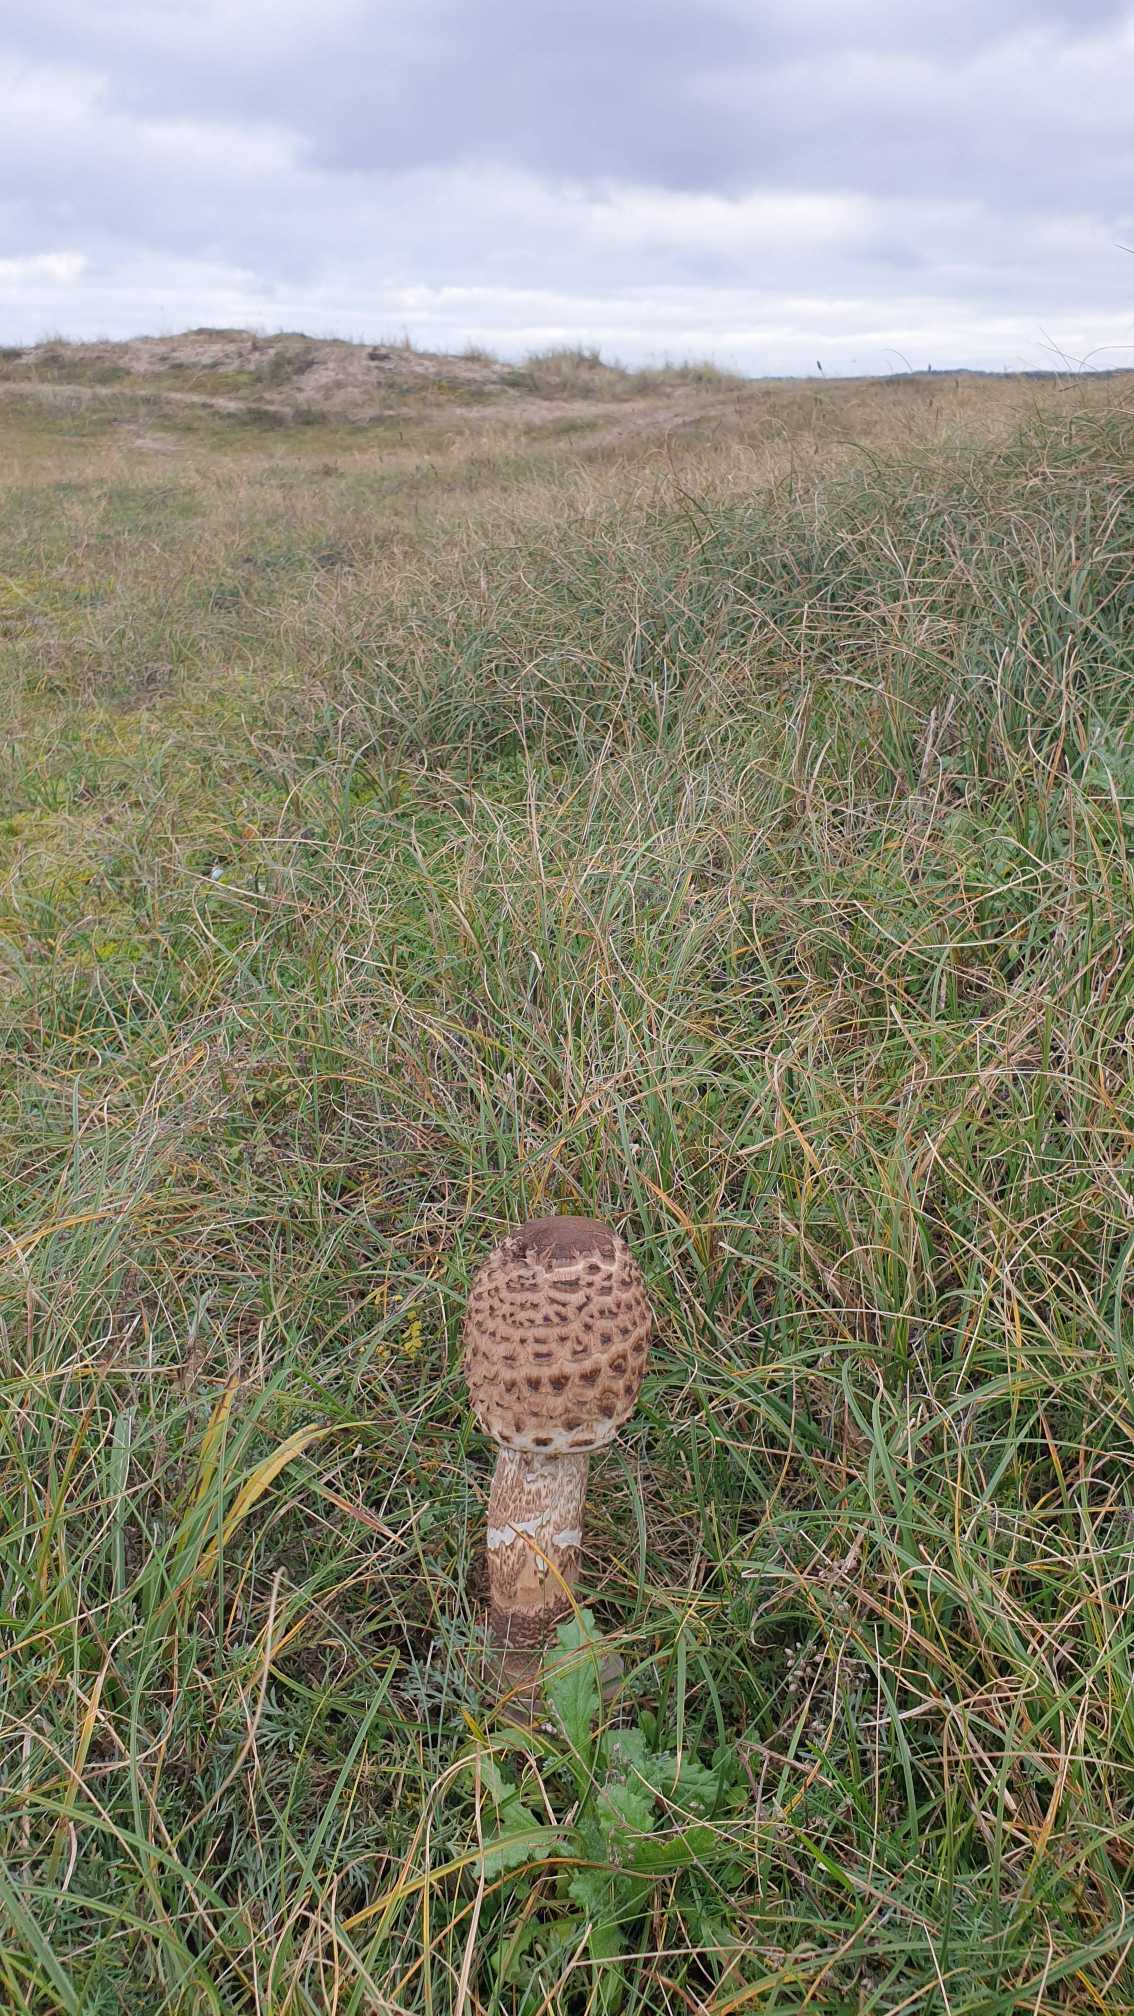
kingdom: Fungi
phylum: Basidiomycota
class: Agaricomycetes
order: Agaricales
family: Agaricaceae
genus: Macrolepiota
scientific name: Macrolepiota procera
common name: Stor kæmpeparasolhat
